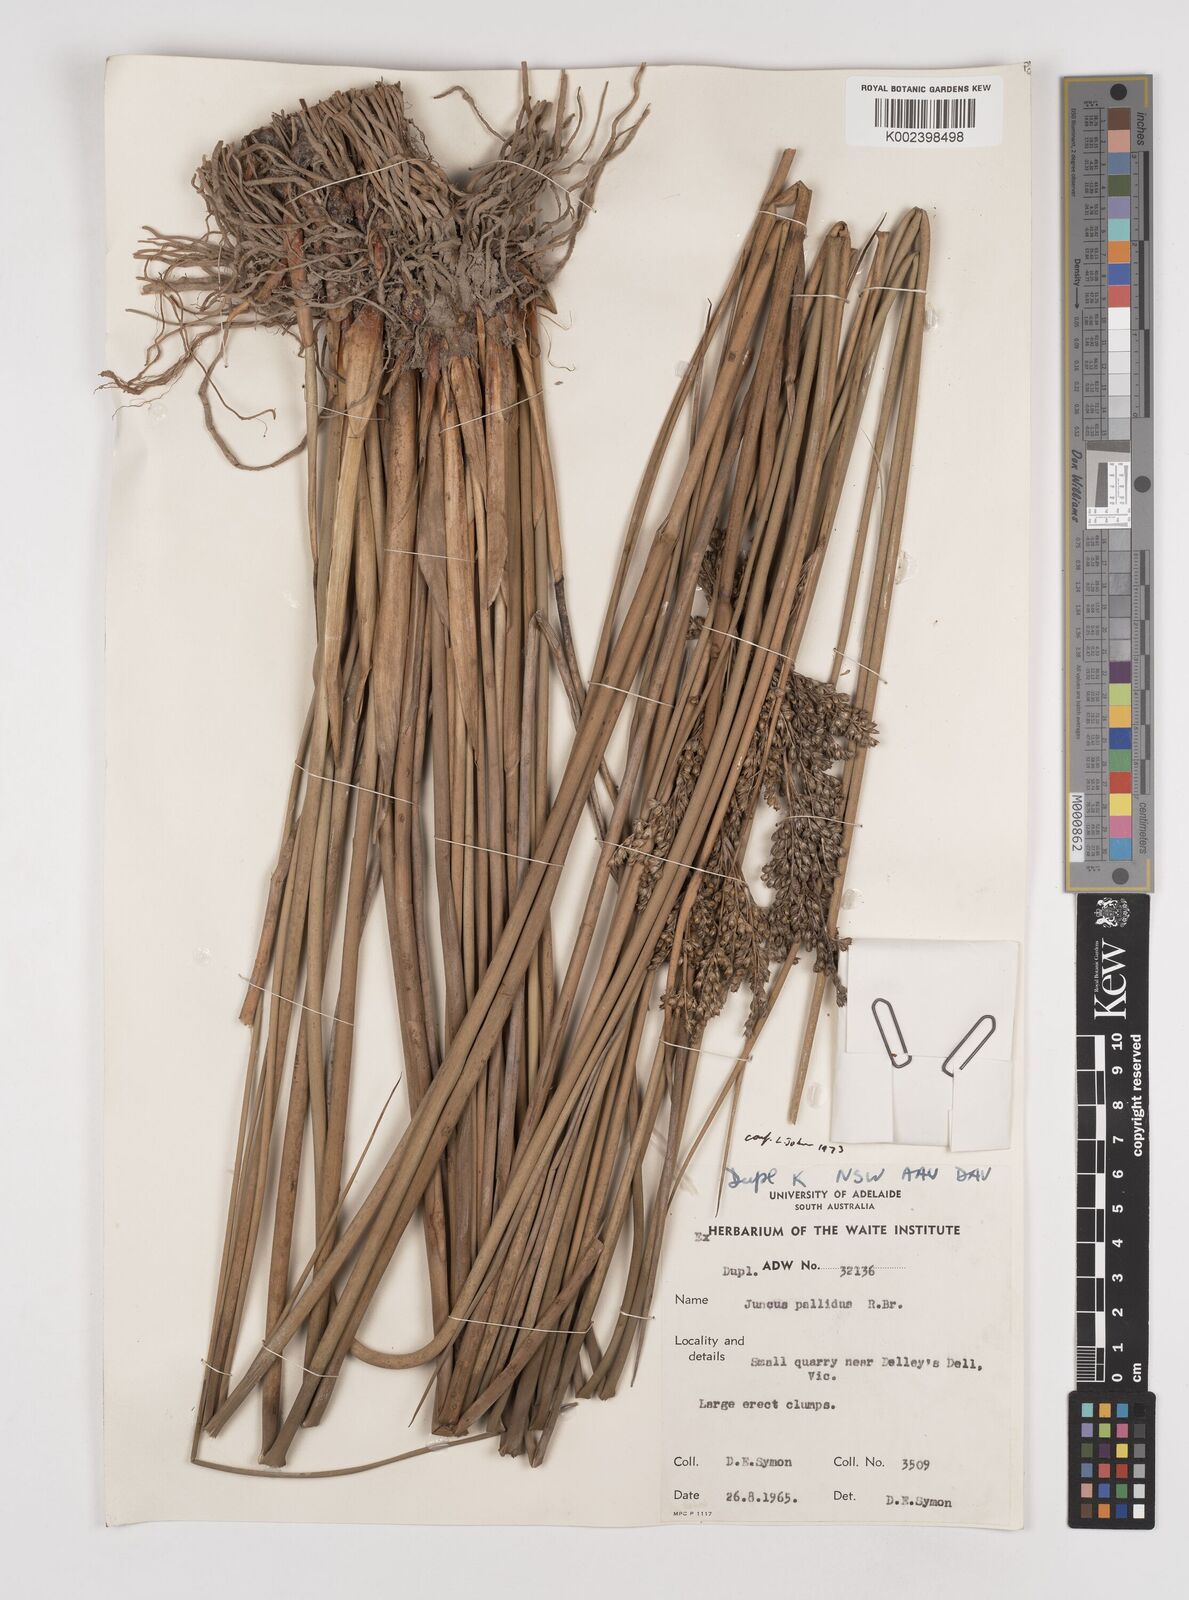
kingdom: Plantae
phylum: Tracheophyta
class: Liliopsida
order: Poales
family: Juncaceae
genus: Juncus
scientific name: Juncus pallidus
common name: Great soft-rush
